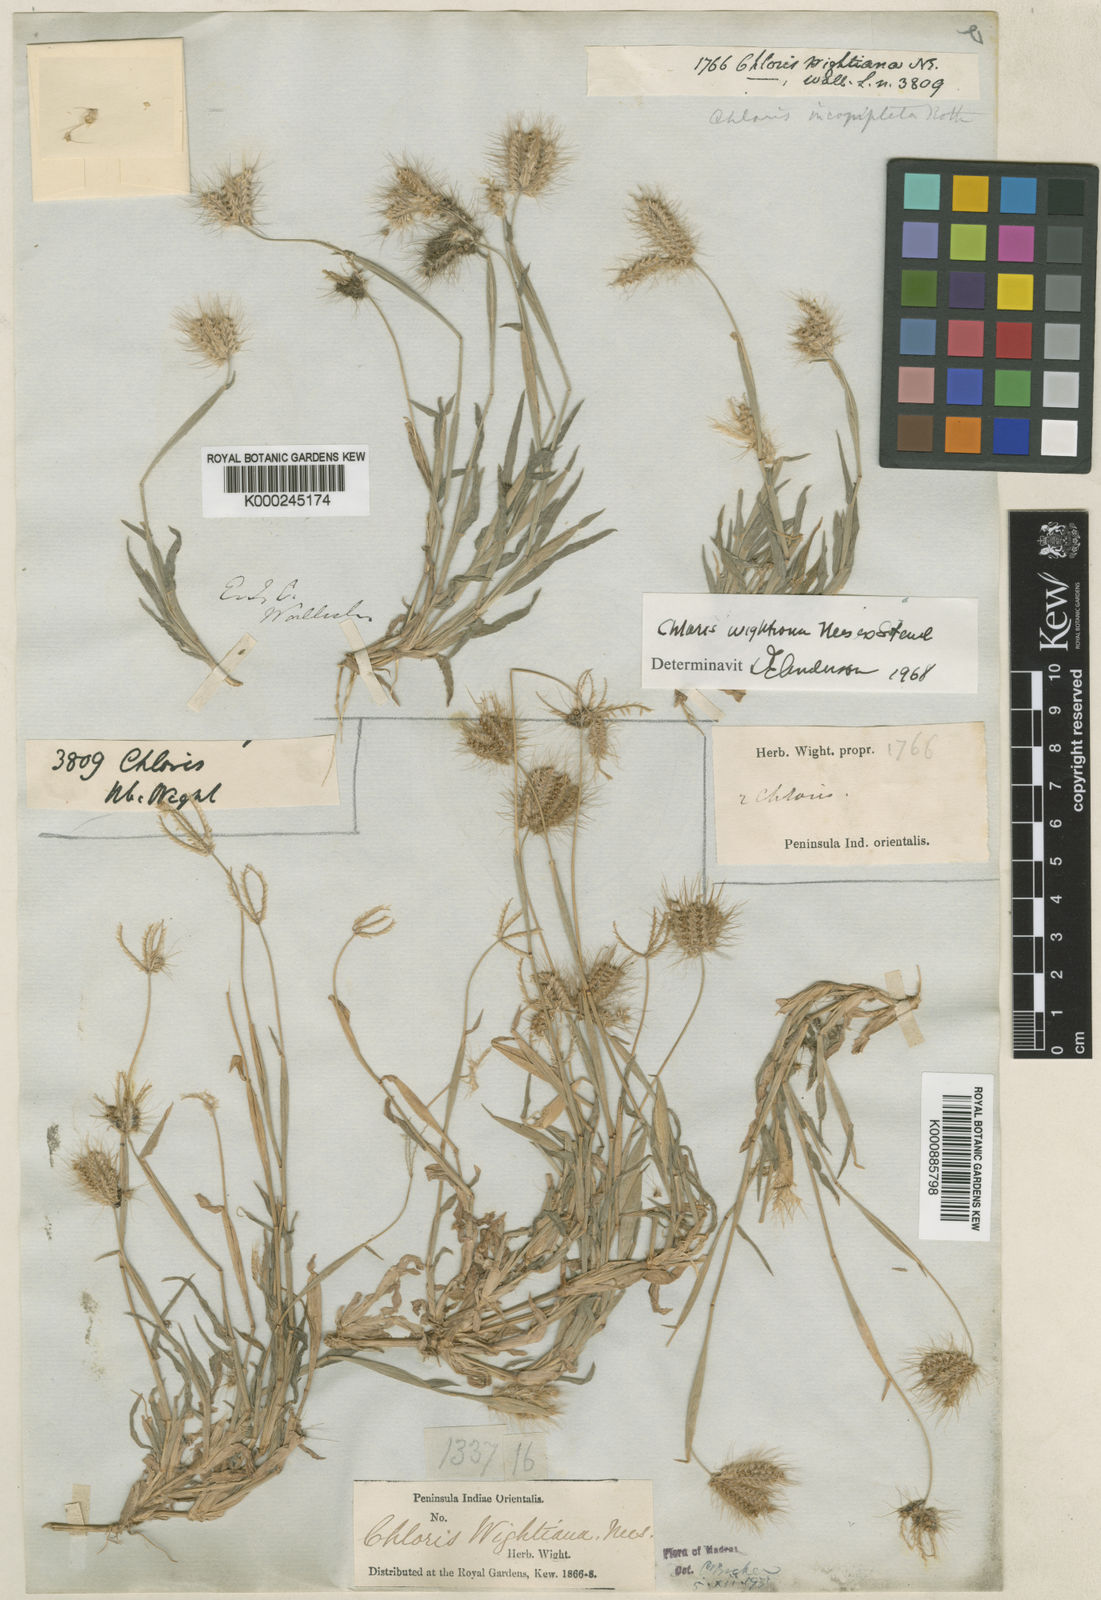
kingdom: Plantae
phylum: Tracheophyta
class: Liliopsida
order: Poales
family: Poaceae
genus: Chloris
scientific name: Chloris wightiana
